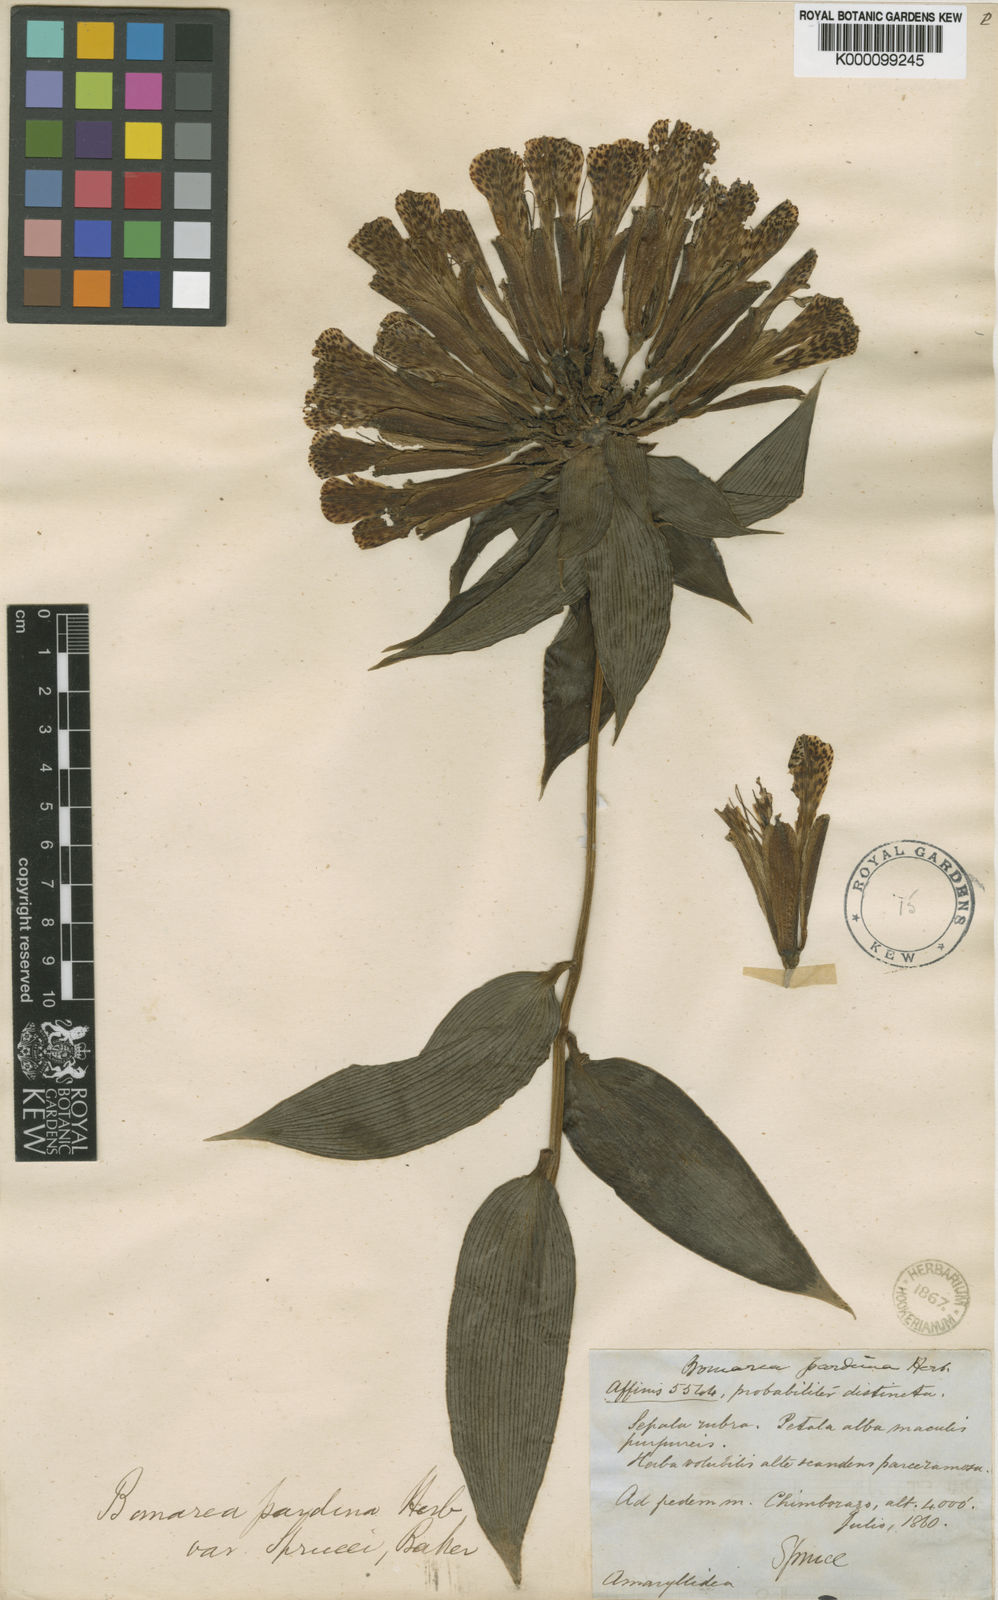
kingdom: Plantae
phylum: Tracheophyta
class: Liliopsida
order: Liliales
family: Alstroemeriaceae
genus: Bomarea
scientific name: Bomarea pardina
